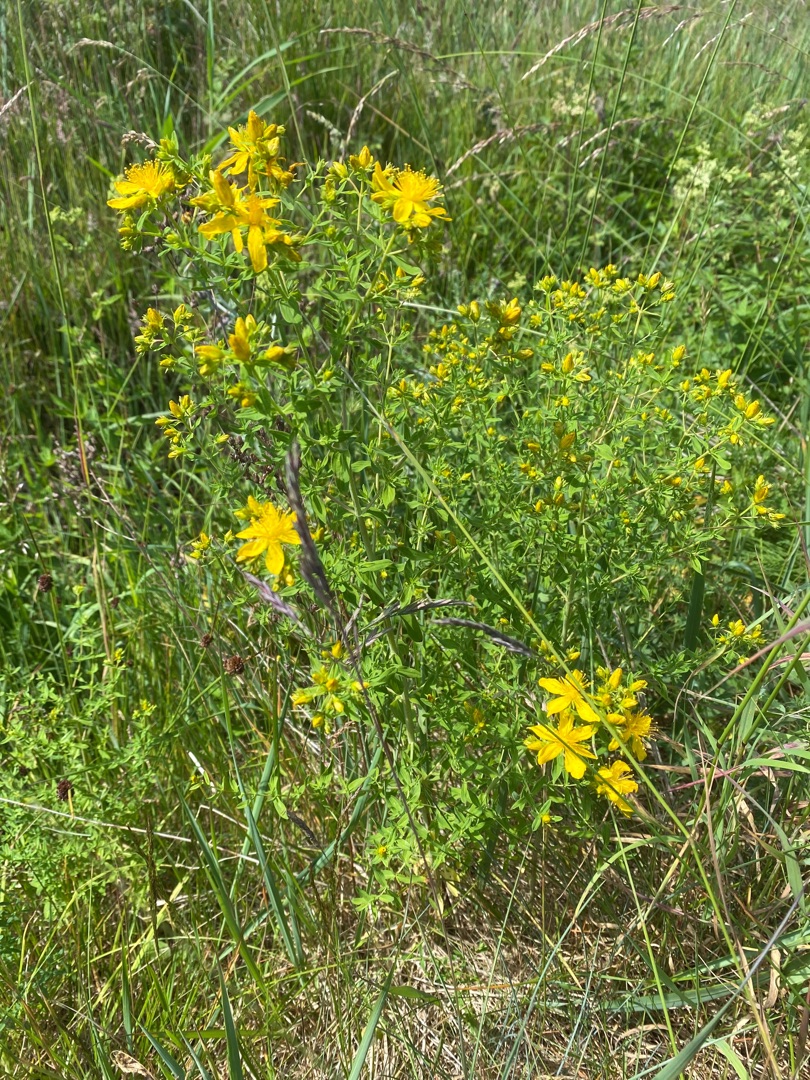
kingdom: Plantae
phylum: Tracheophyta
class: Magnoliopsida
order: Malpighiales
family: Hypericaceae
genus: Hypericum
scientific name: Hypericum perforatum
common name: Prikbladet perikon
